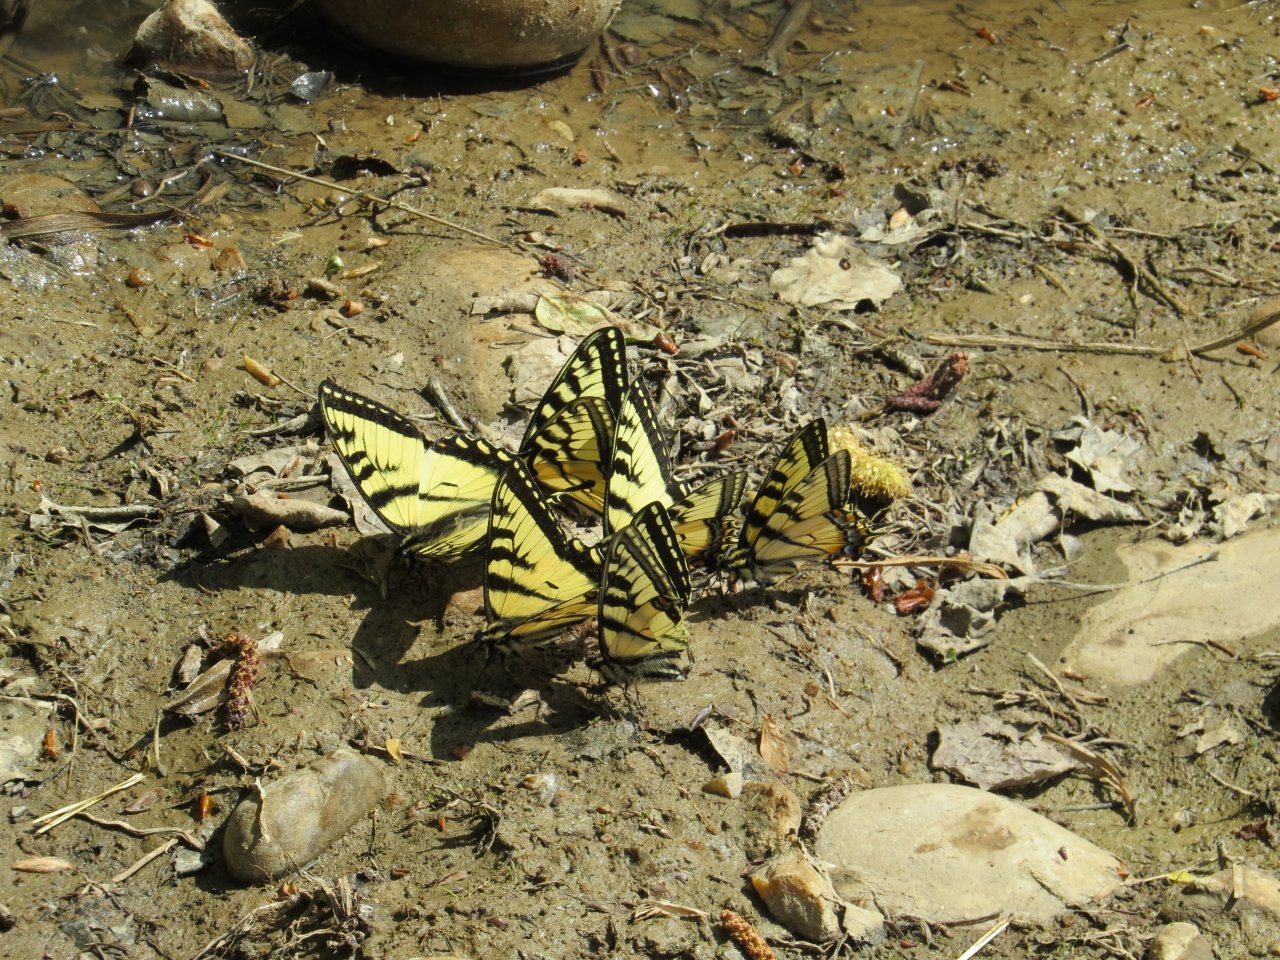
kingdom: Animalia
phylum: Arthropoda
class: Insecta
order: Lepidoptera
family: Papilionidae
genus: Pterourus
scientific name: Pterourus canadensis
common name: Canadian Tiger Swallowtail
